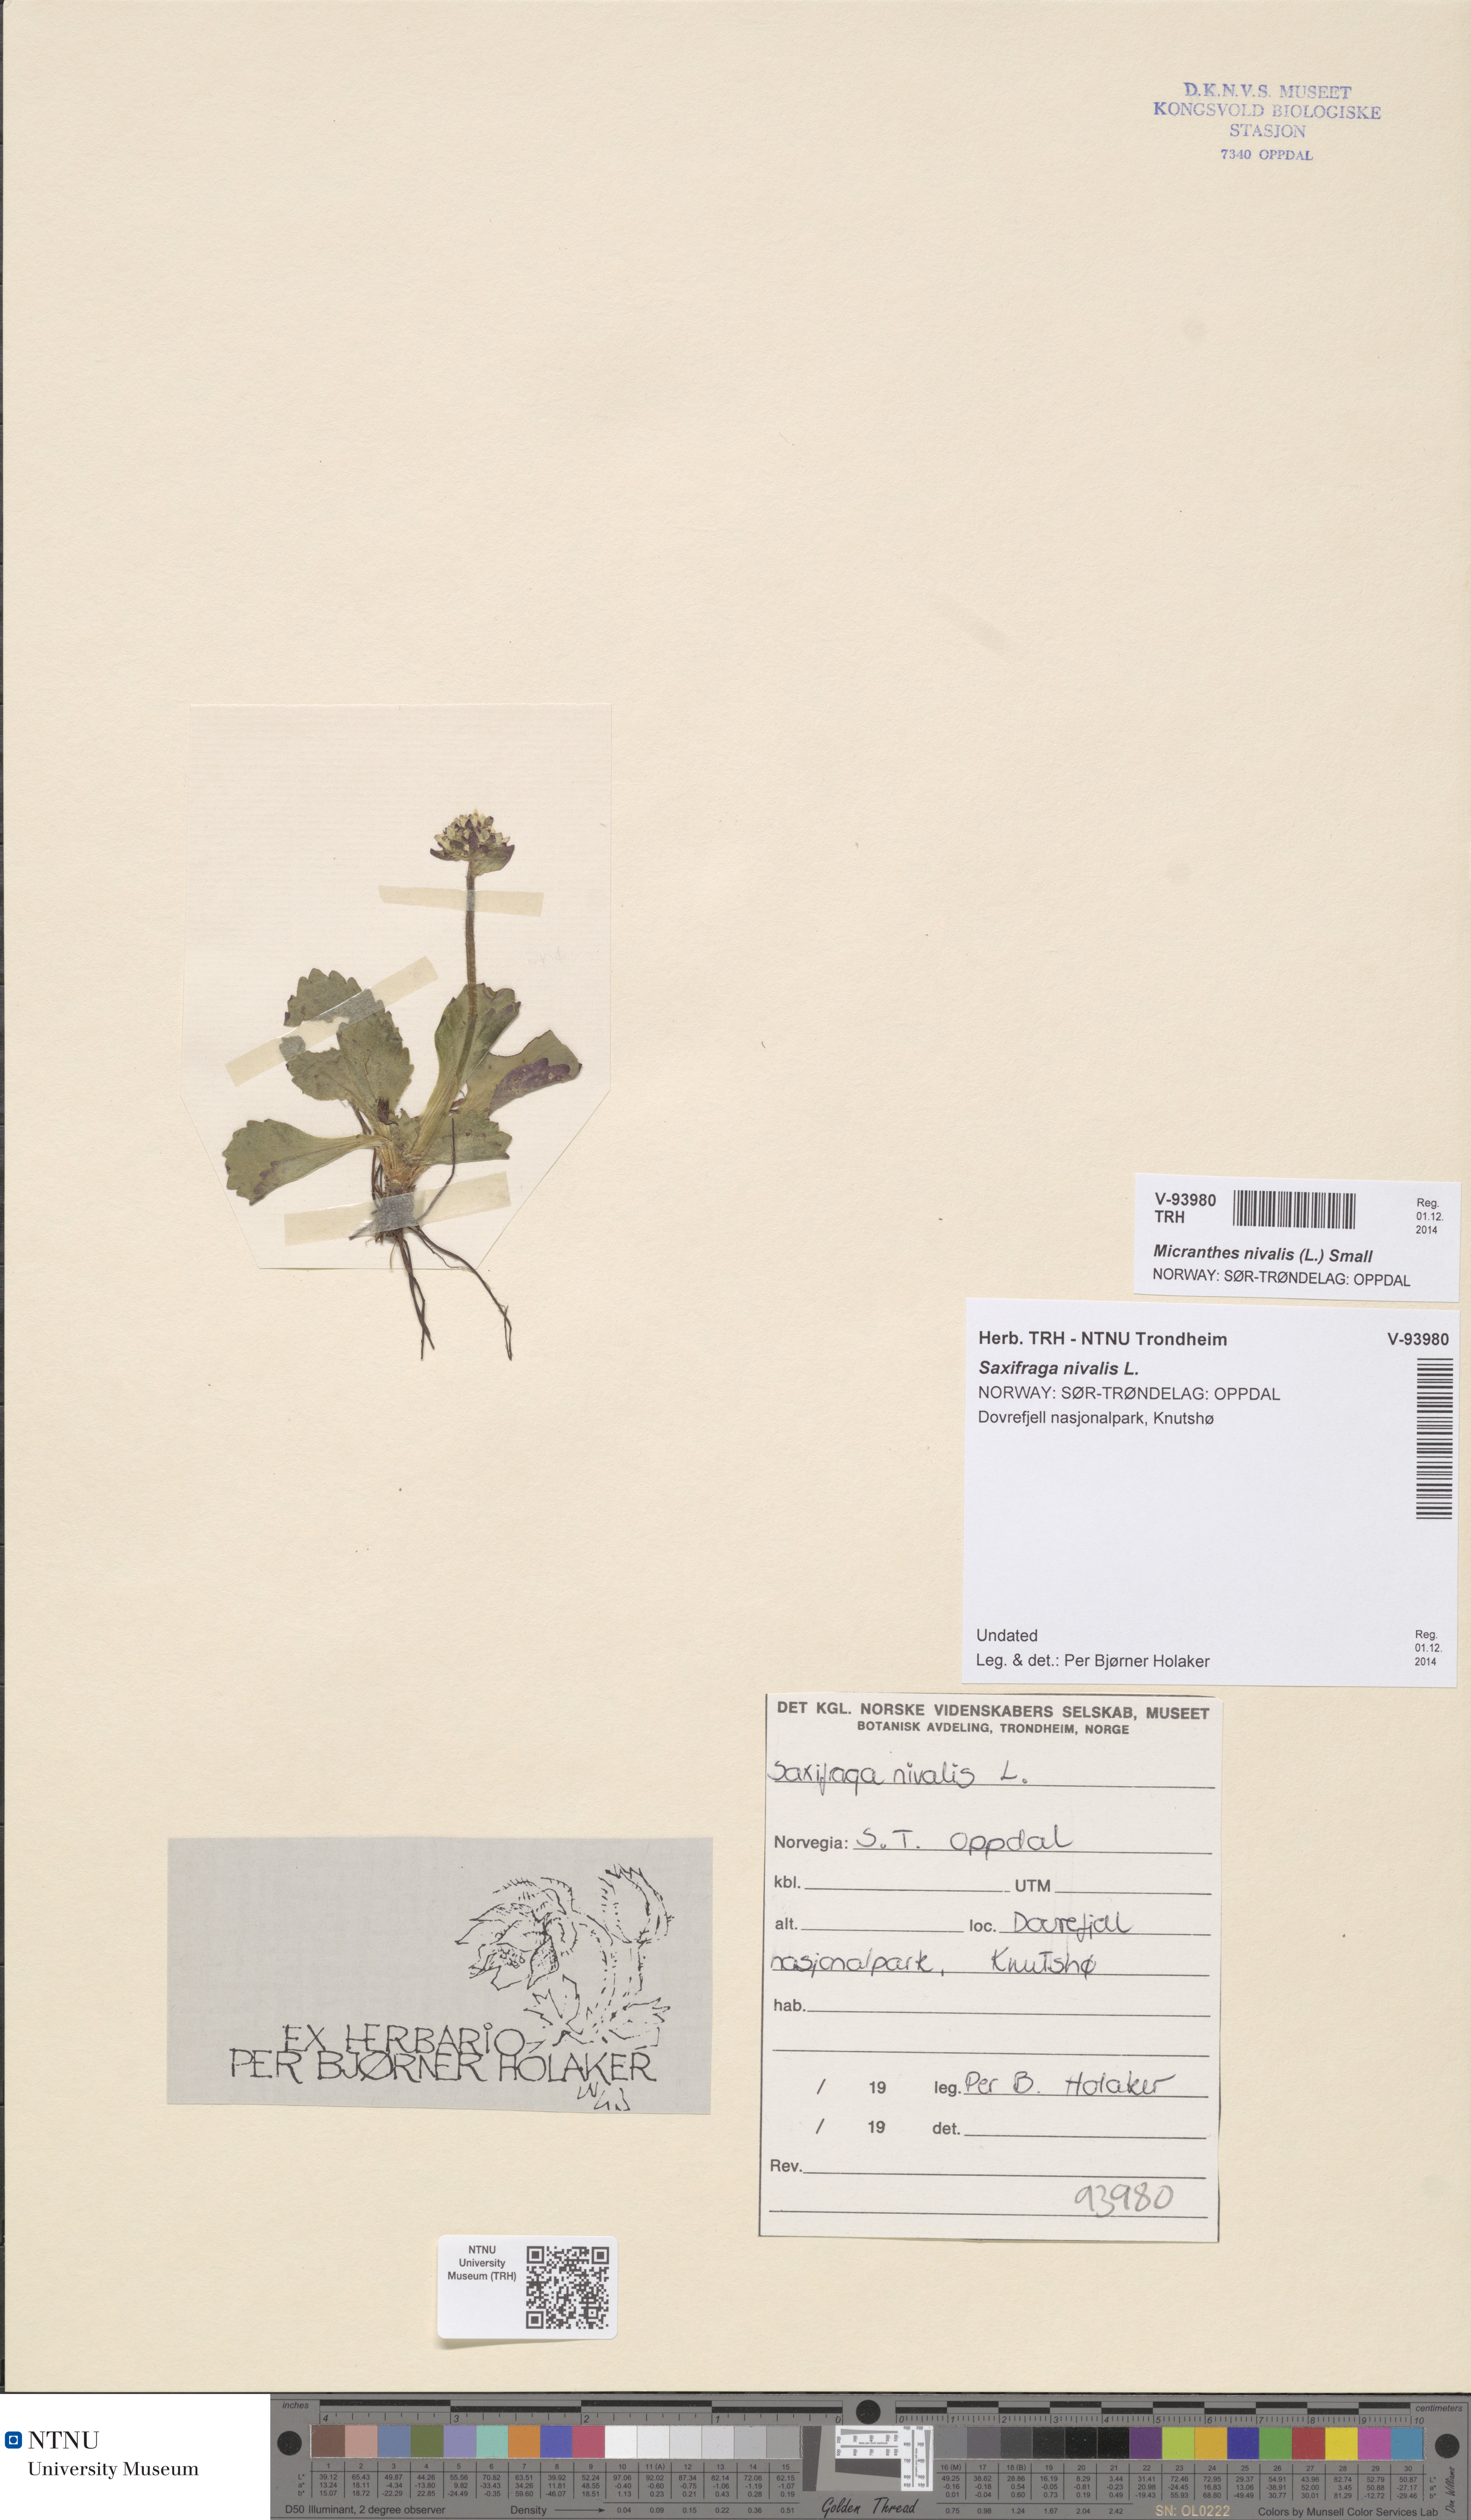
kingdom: Plantae
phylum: Tracheophyta
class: Magnoliopsida
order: Saxifragales
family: Saxifragaceae
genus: Micranthes
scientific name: Micranthes nivalis
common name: Alpine saxifrage
